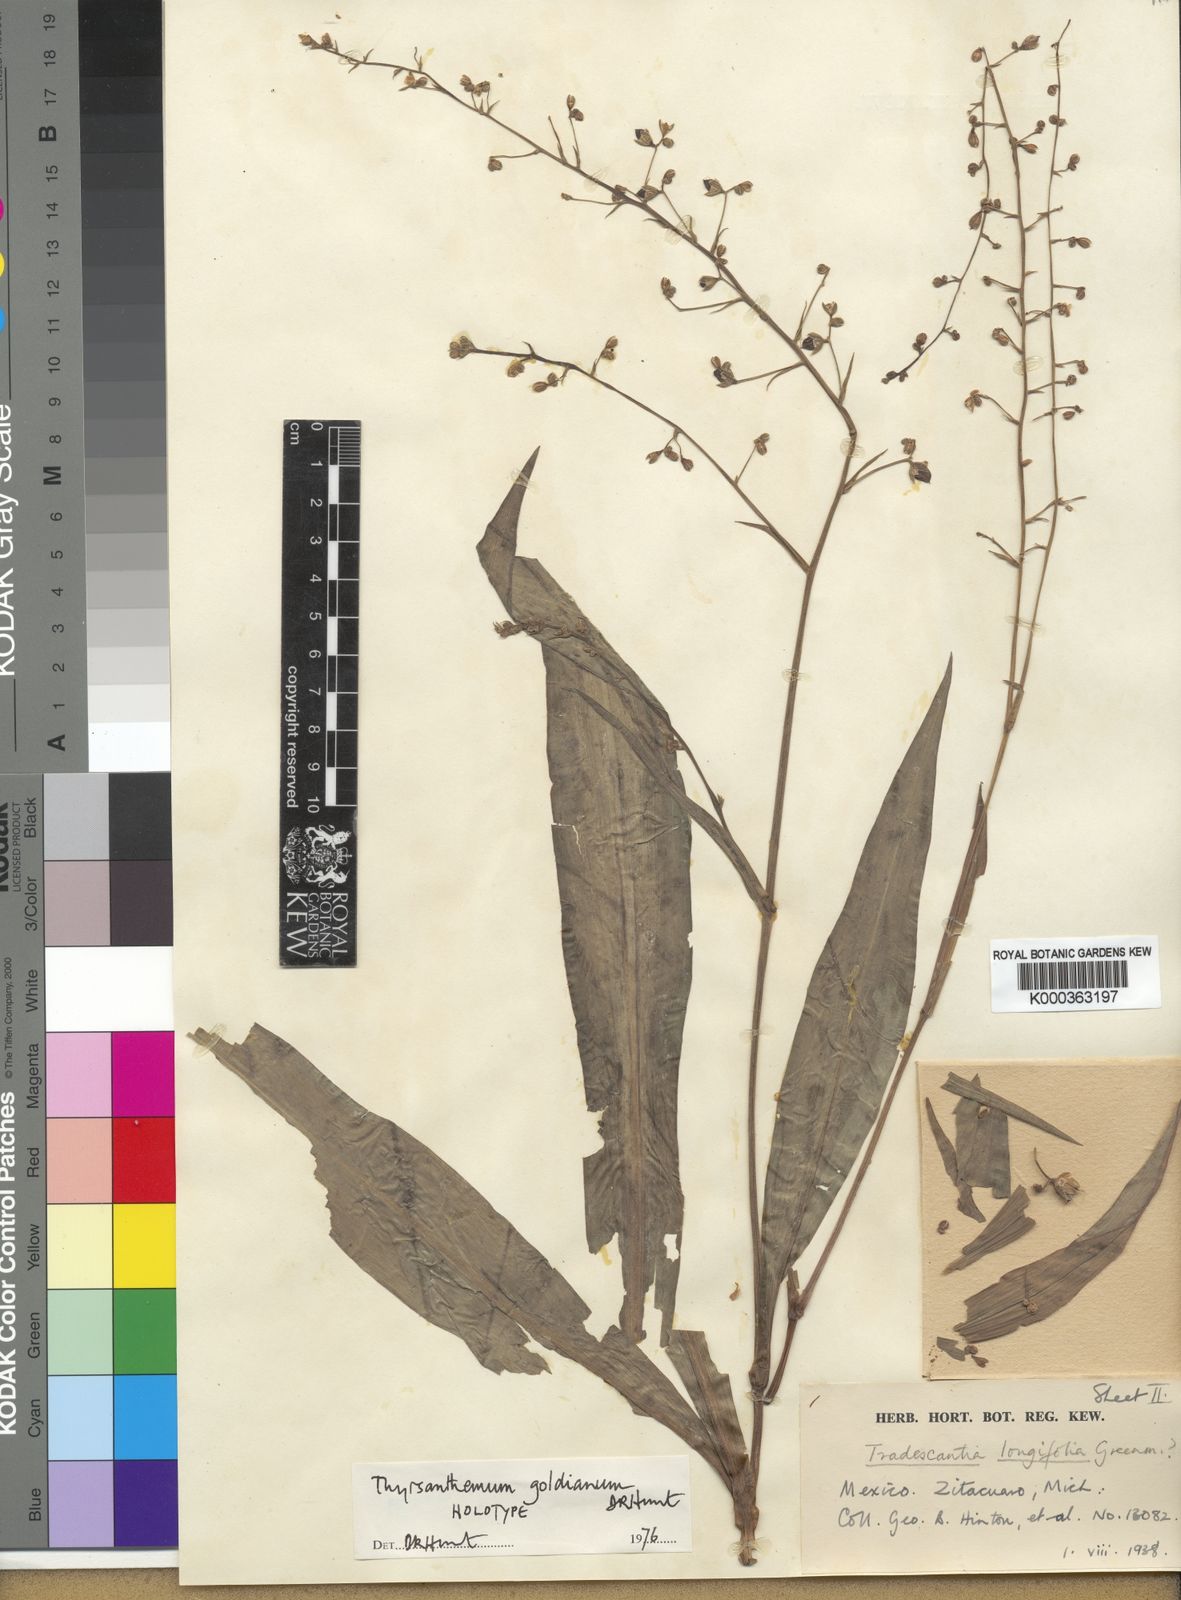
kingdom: Plantae
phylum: Tracheophyta
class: Liliopsida
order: Commelinales
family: Commelinaceae
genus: Thyrsanthemum
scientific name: Thyrsanthemum goldianum
